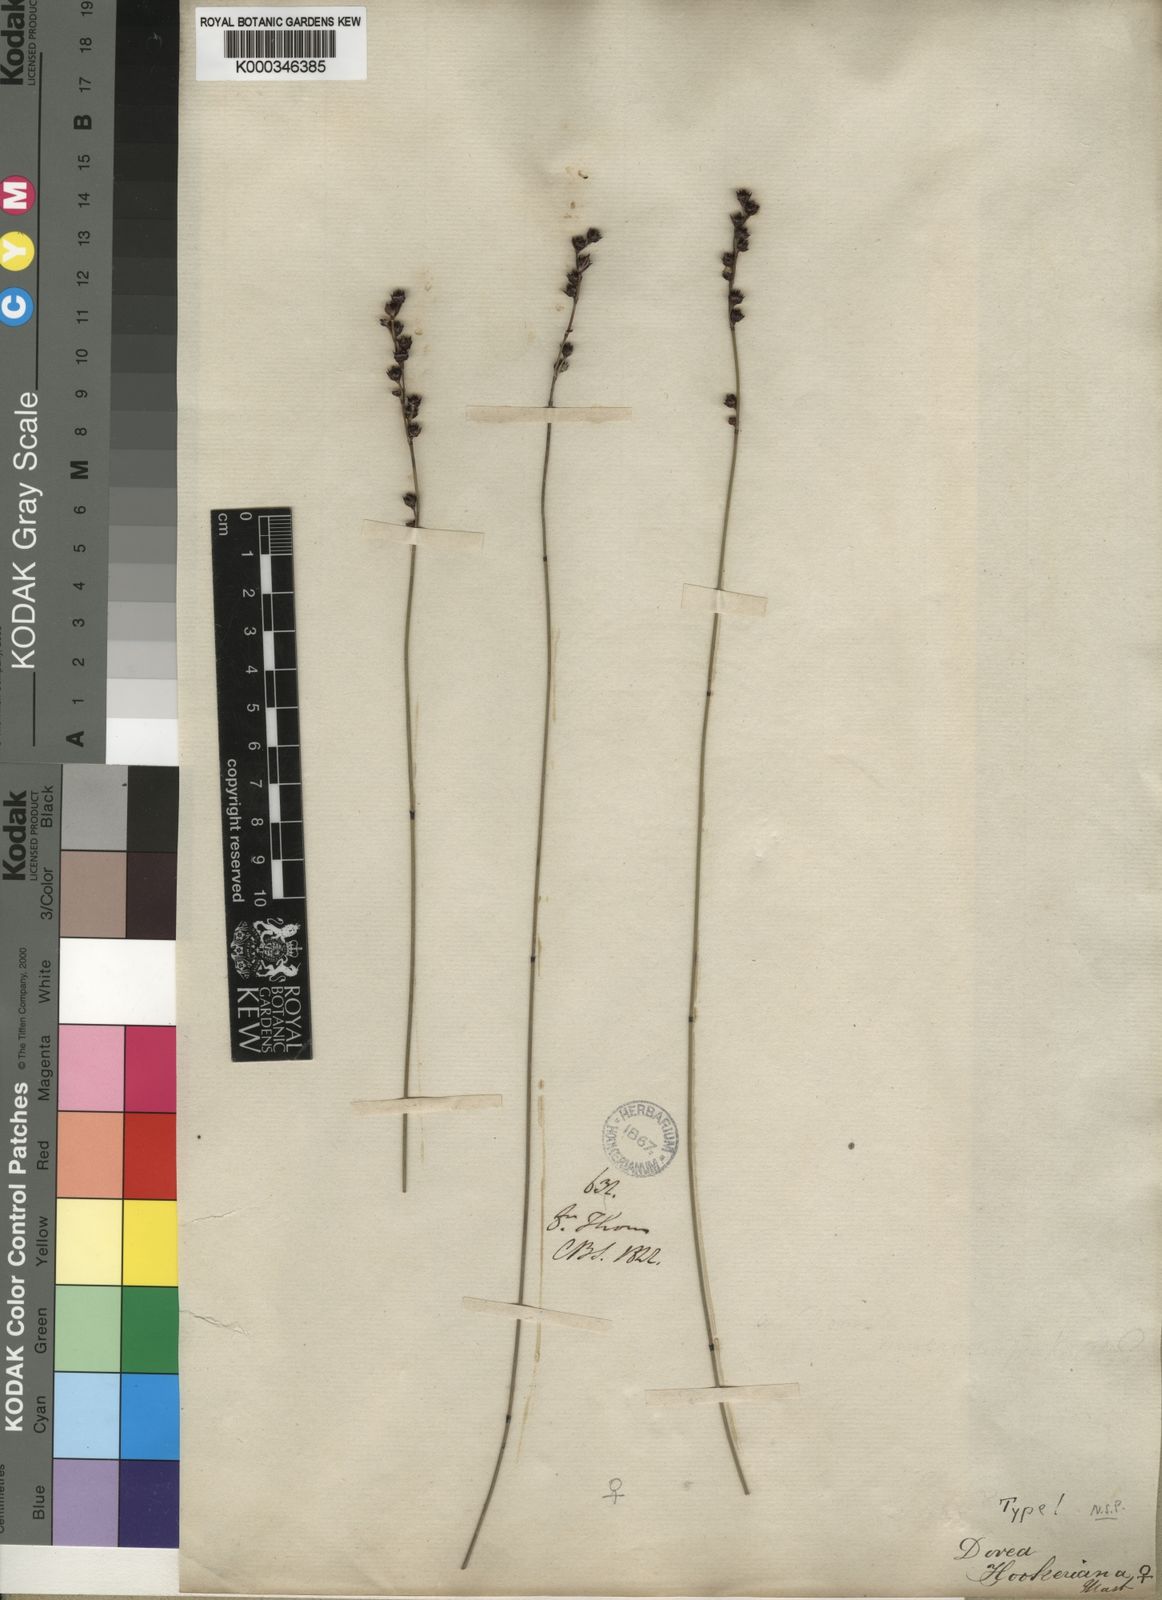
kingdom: Plantae
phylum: Tracheophyta
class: Liliopsida
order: Poales
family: Restionaceae
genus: Elegia
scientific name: Elegia hookeriana
